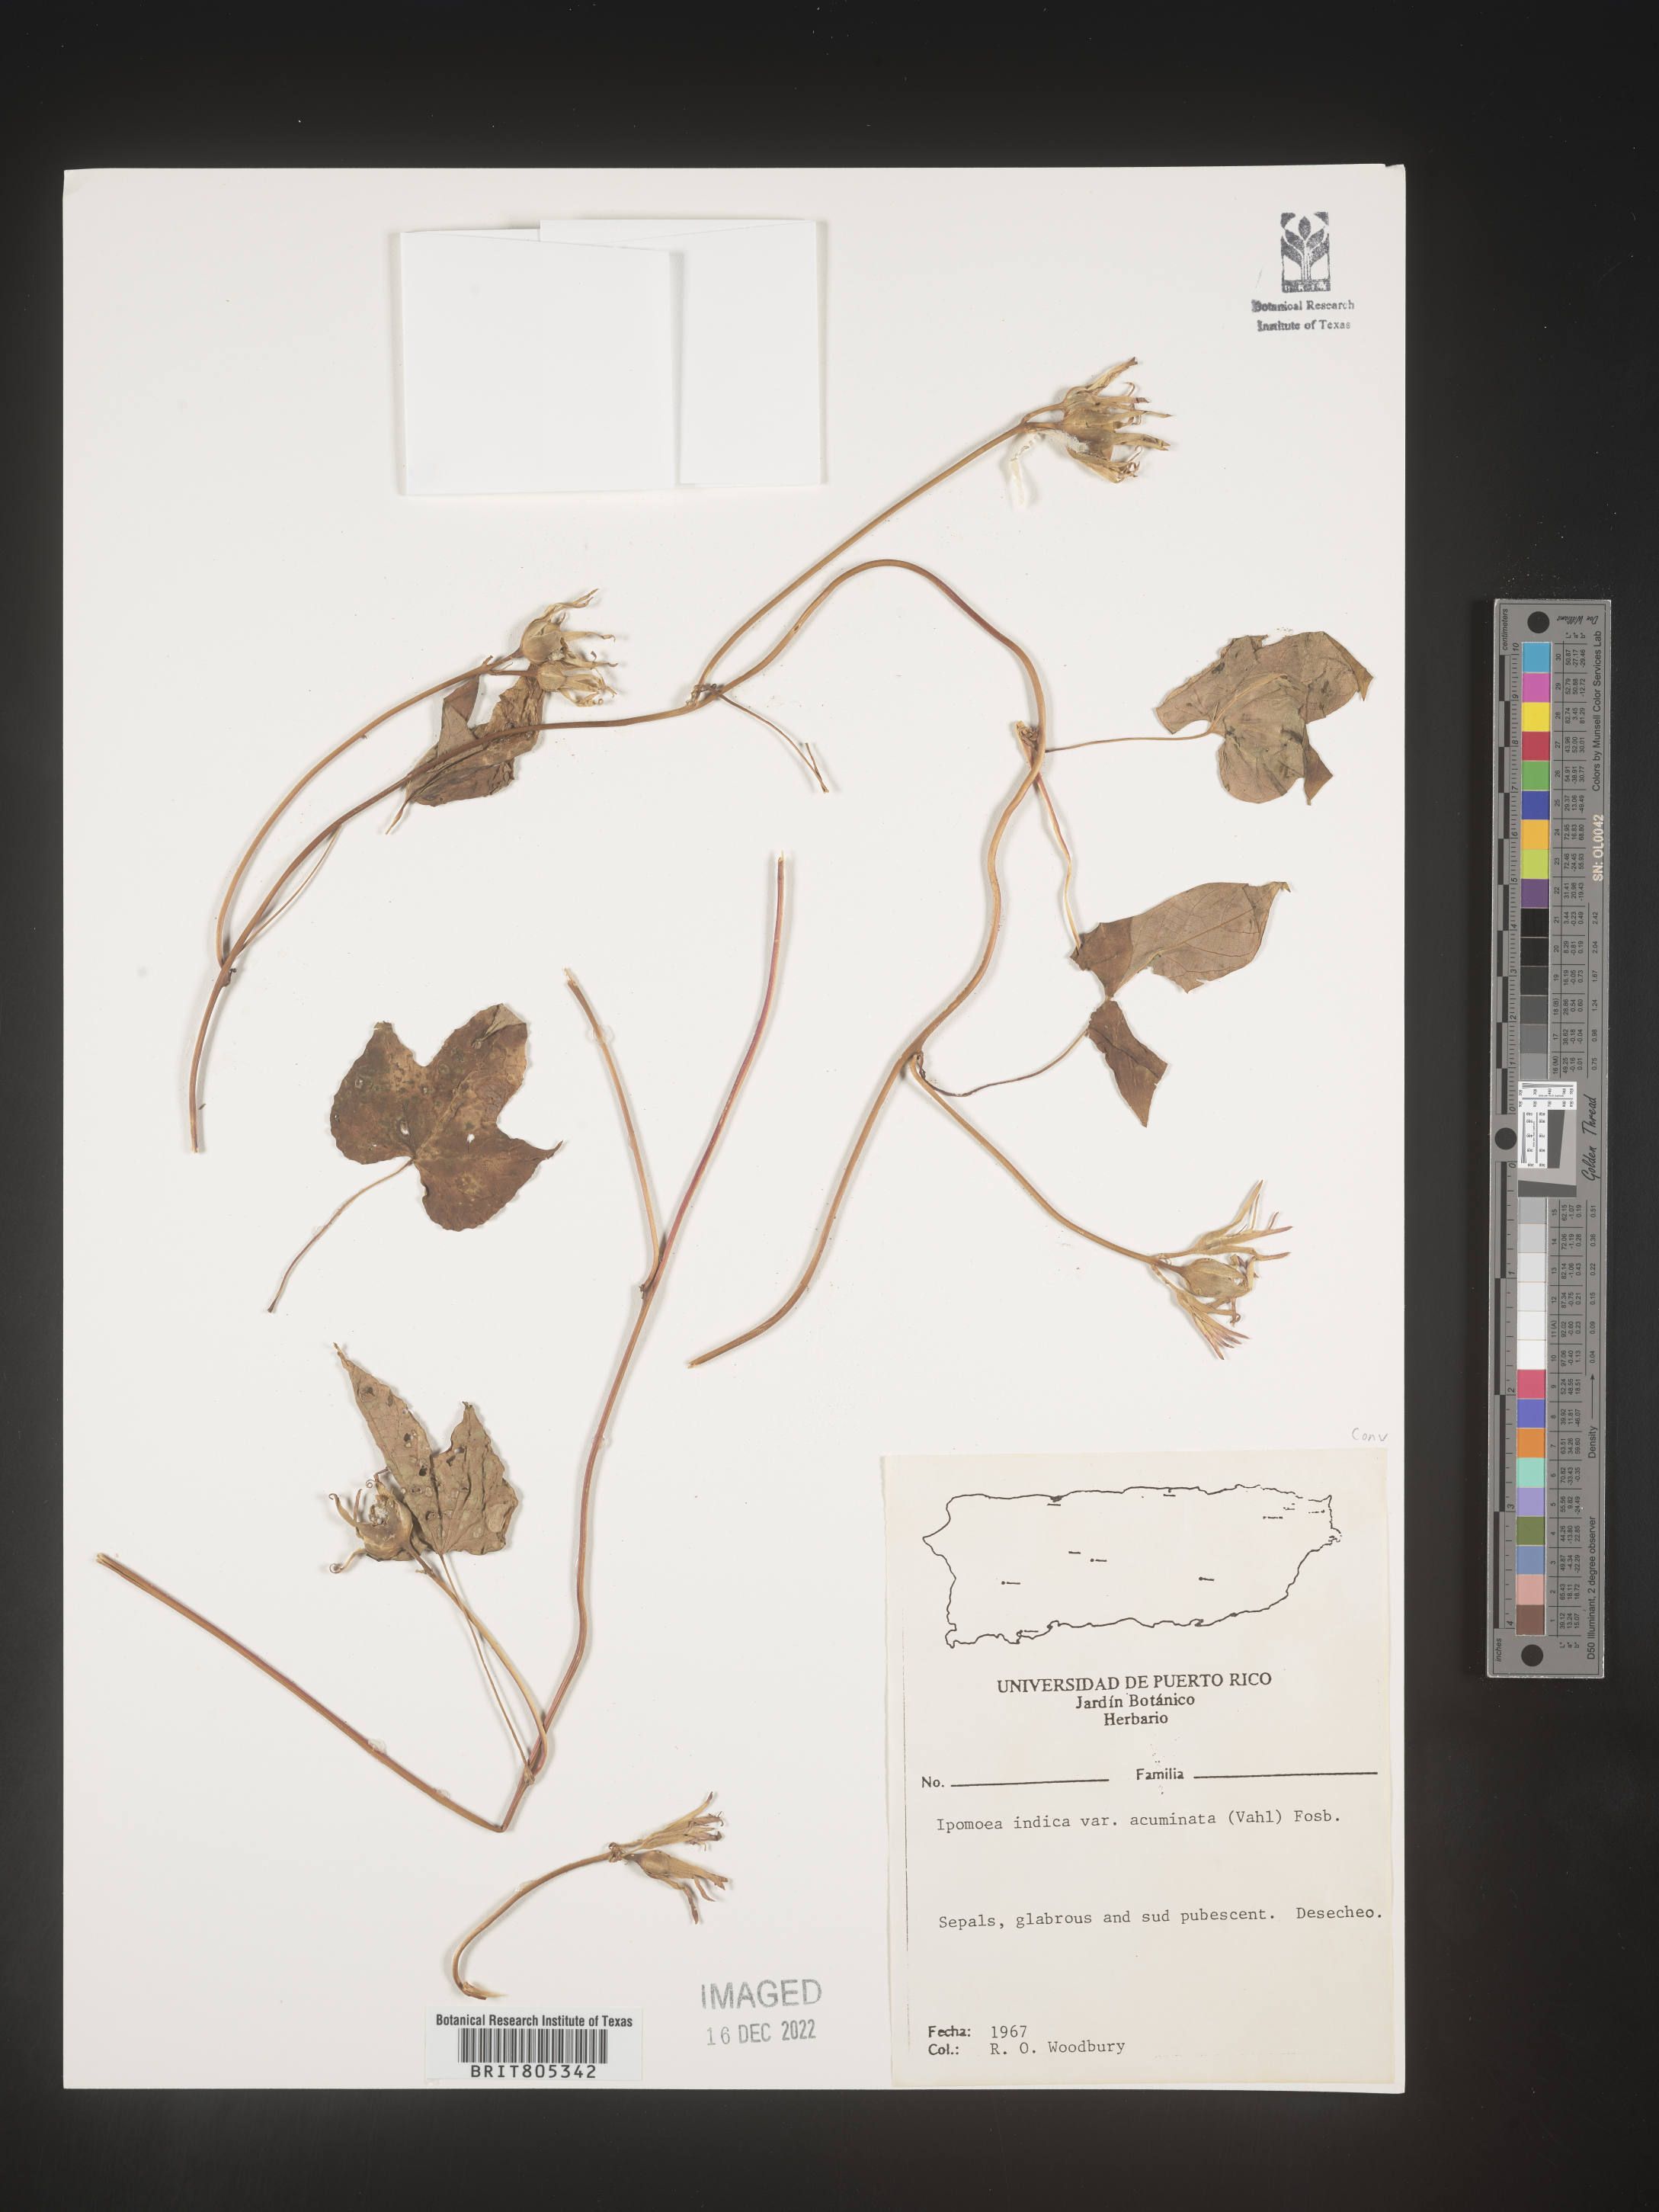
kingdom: Plantae
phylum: Tracheophyta
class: Magnoliopsida
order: Solanales
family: Convolvulaceae
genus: Ipomoea
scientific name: Ipomoea
